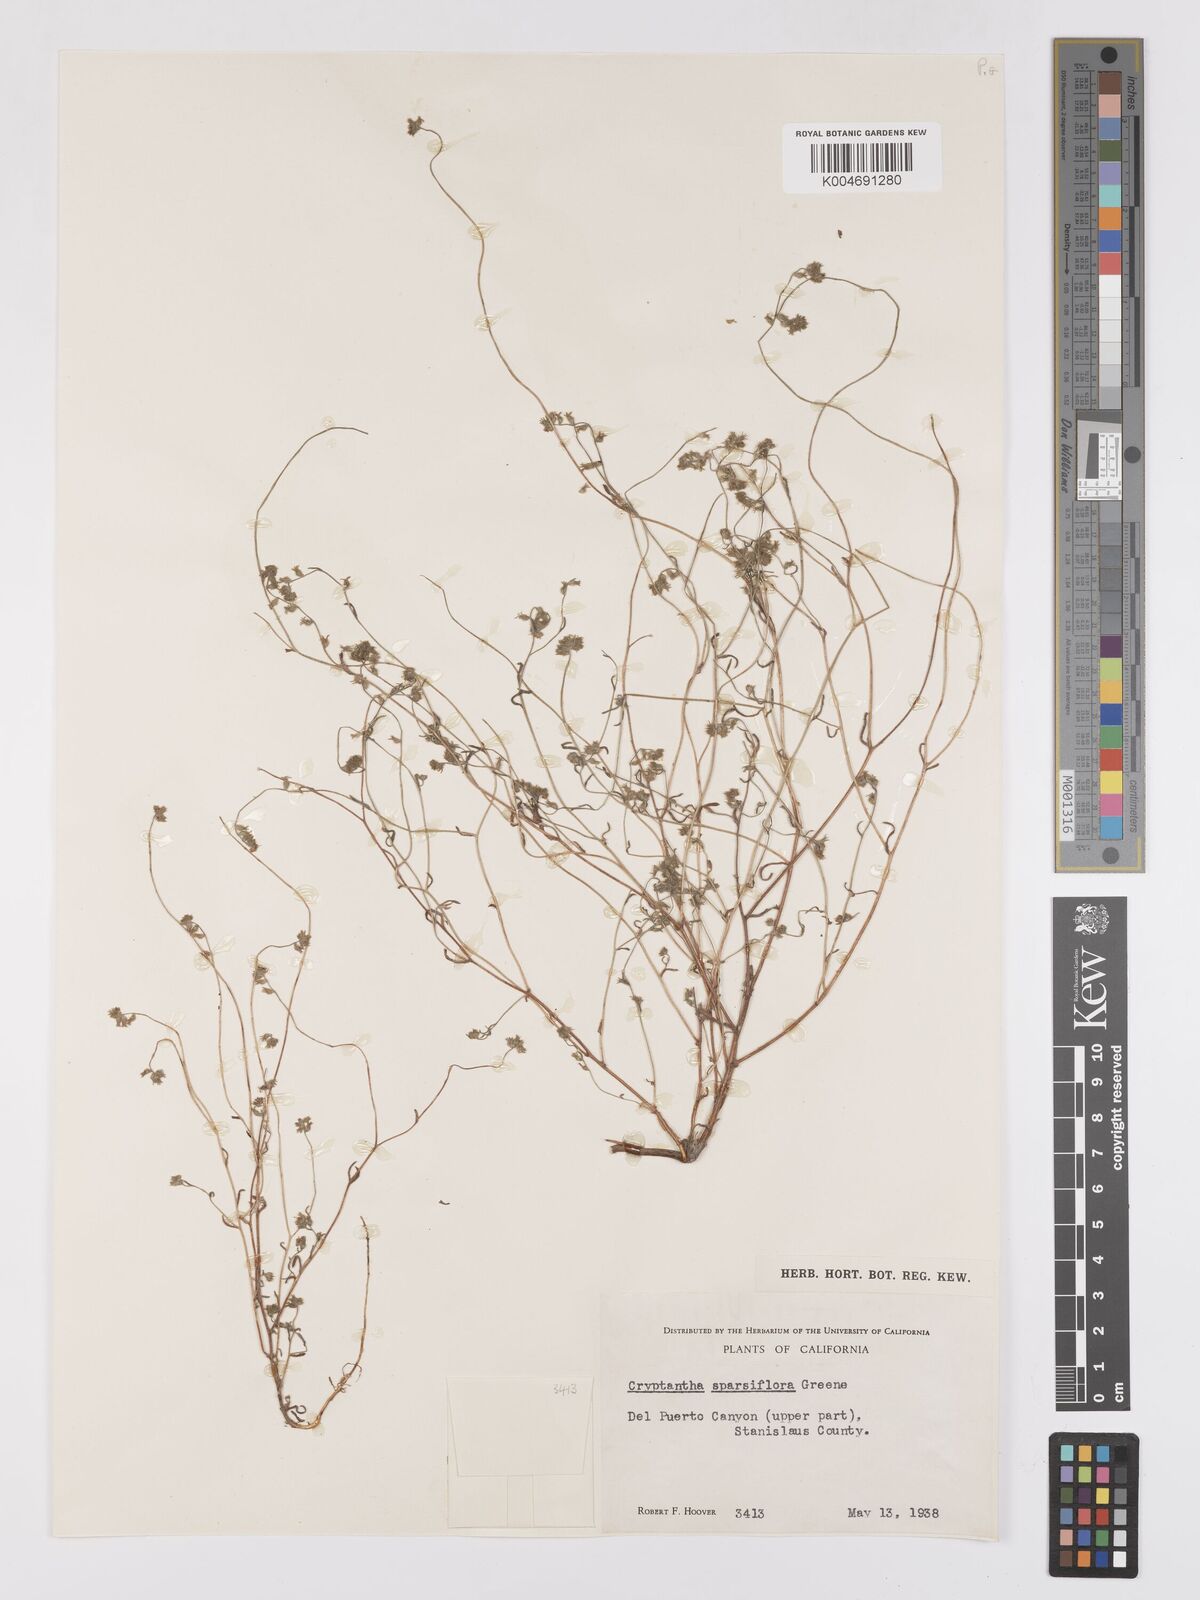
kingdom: Plantae
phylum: Tracheophyta
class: Magnoliopsida
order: Boraginales
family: Boraginaceae
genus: Cryptantha
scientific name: Cryptantha sparsiflora
